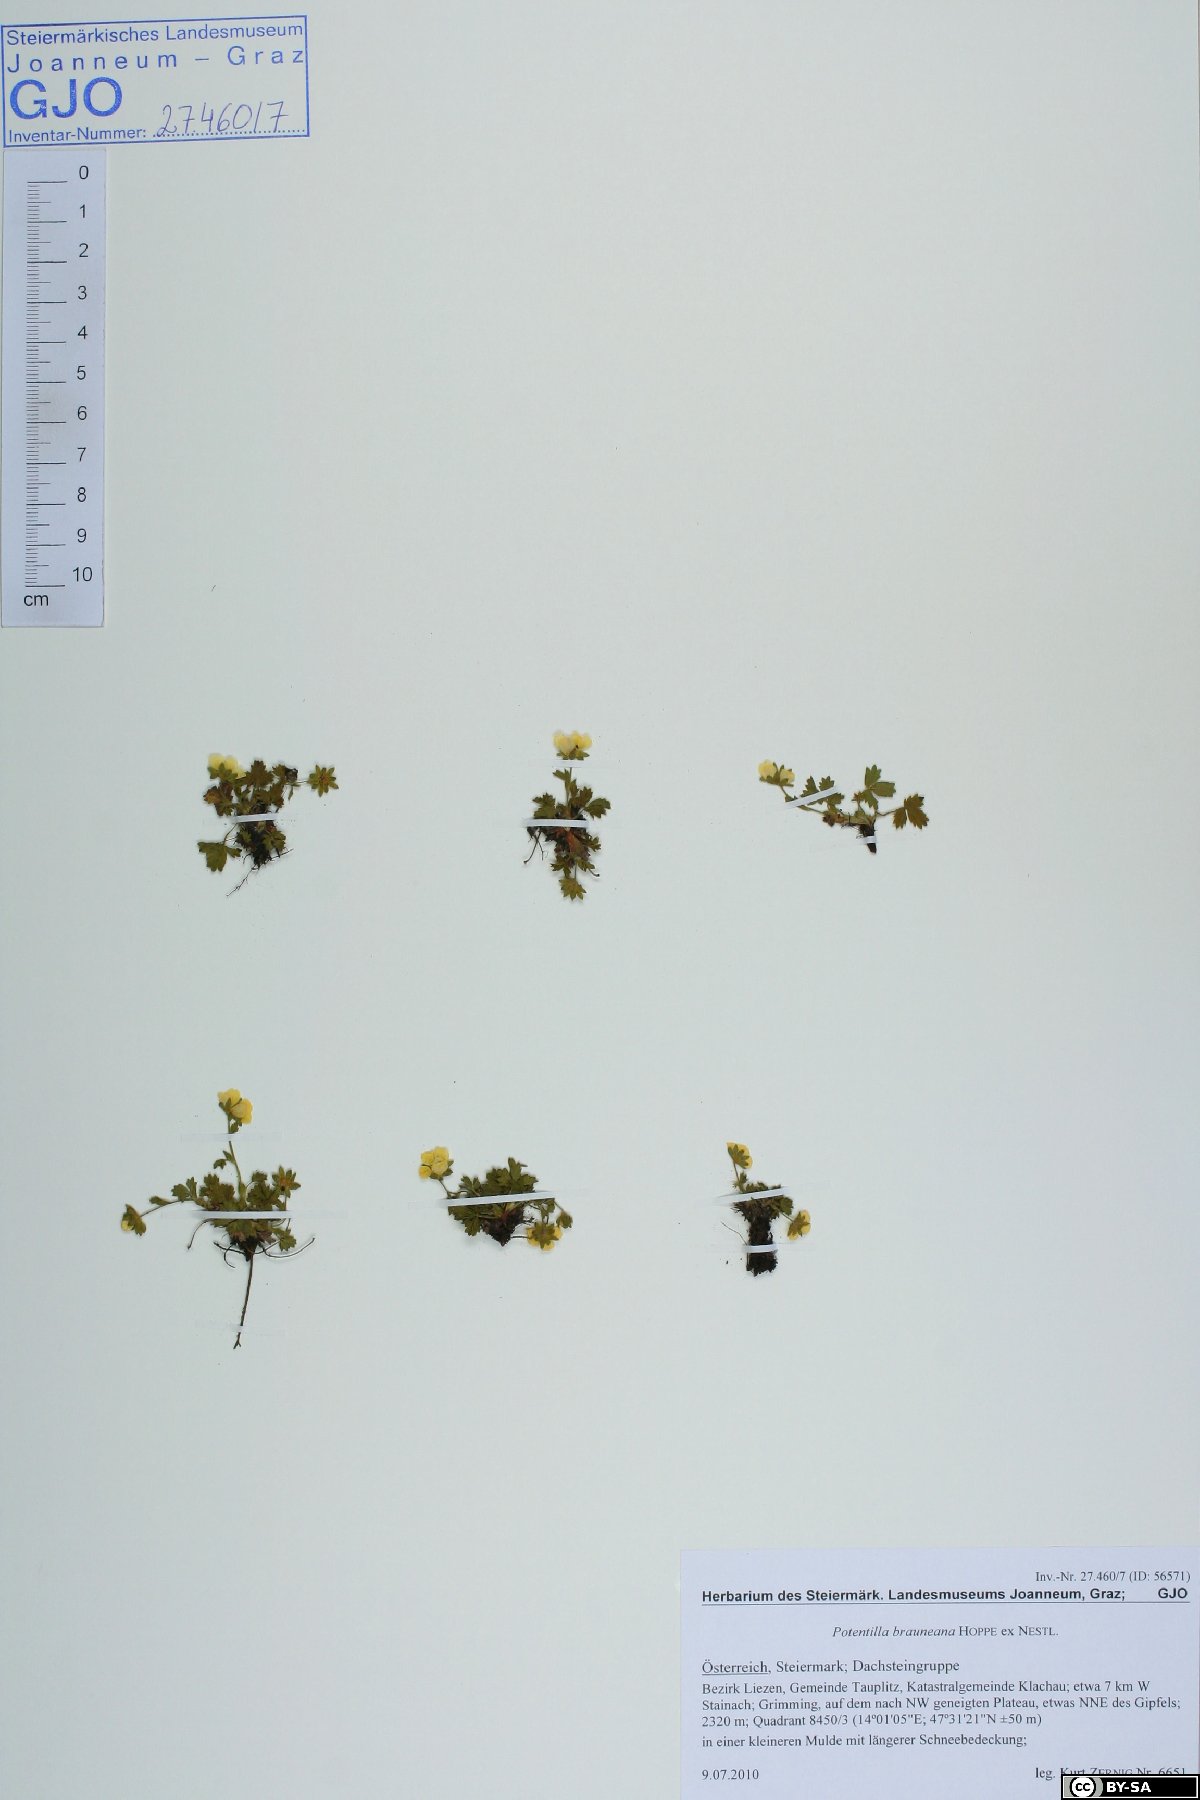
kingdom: Plantae
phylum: Tracheophyta
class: Magnoliopsida
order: Rosales
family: Rosaceae
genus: Potentilla
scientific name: Potentilla brauneana
